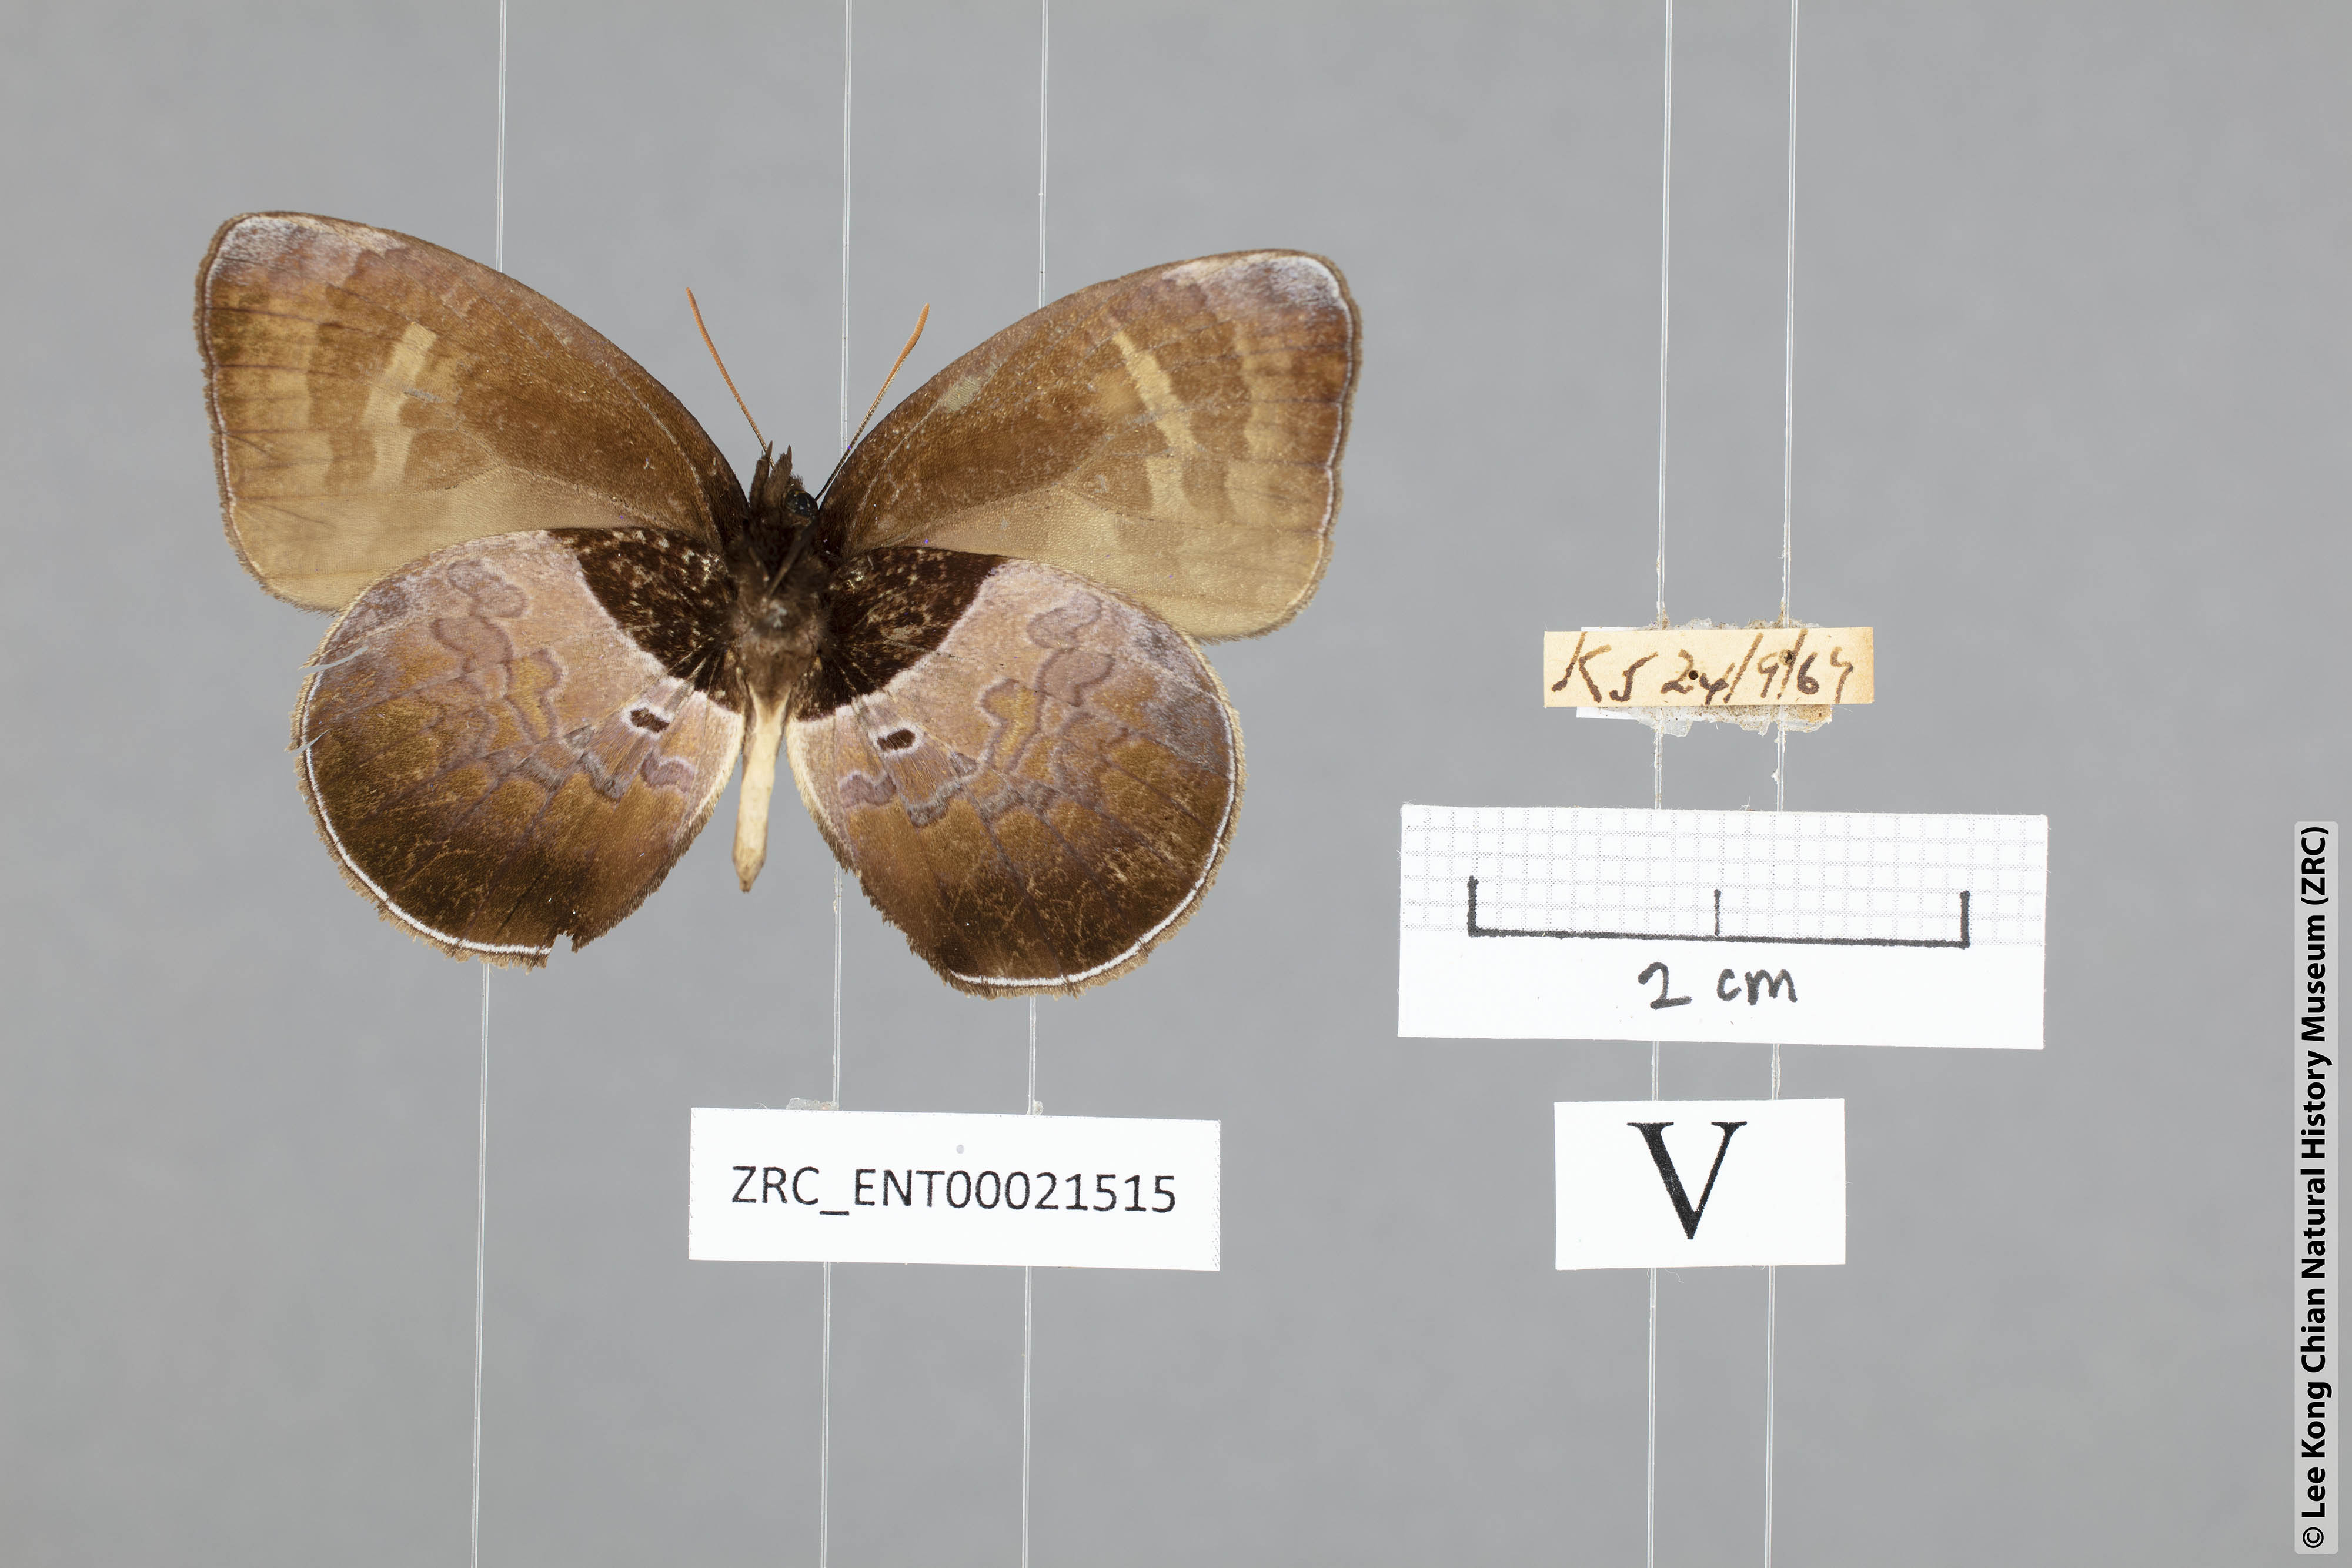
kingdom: Animalia
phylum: Arthropoda
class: Insecta
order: Lepidoptera
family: Lycaenidae
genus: Flos
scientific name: Flos
